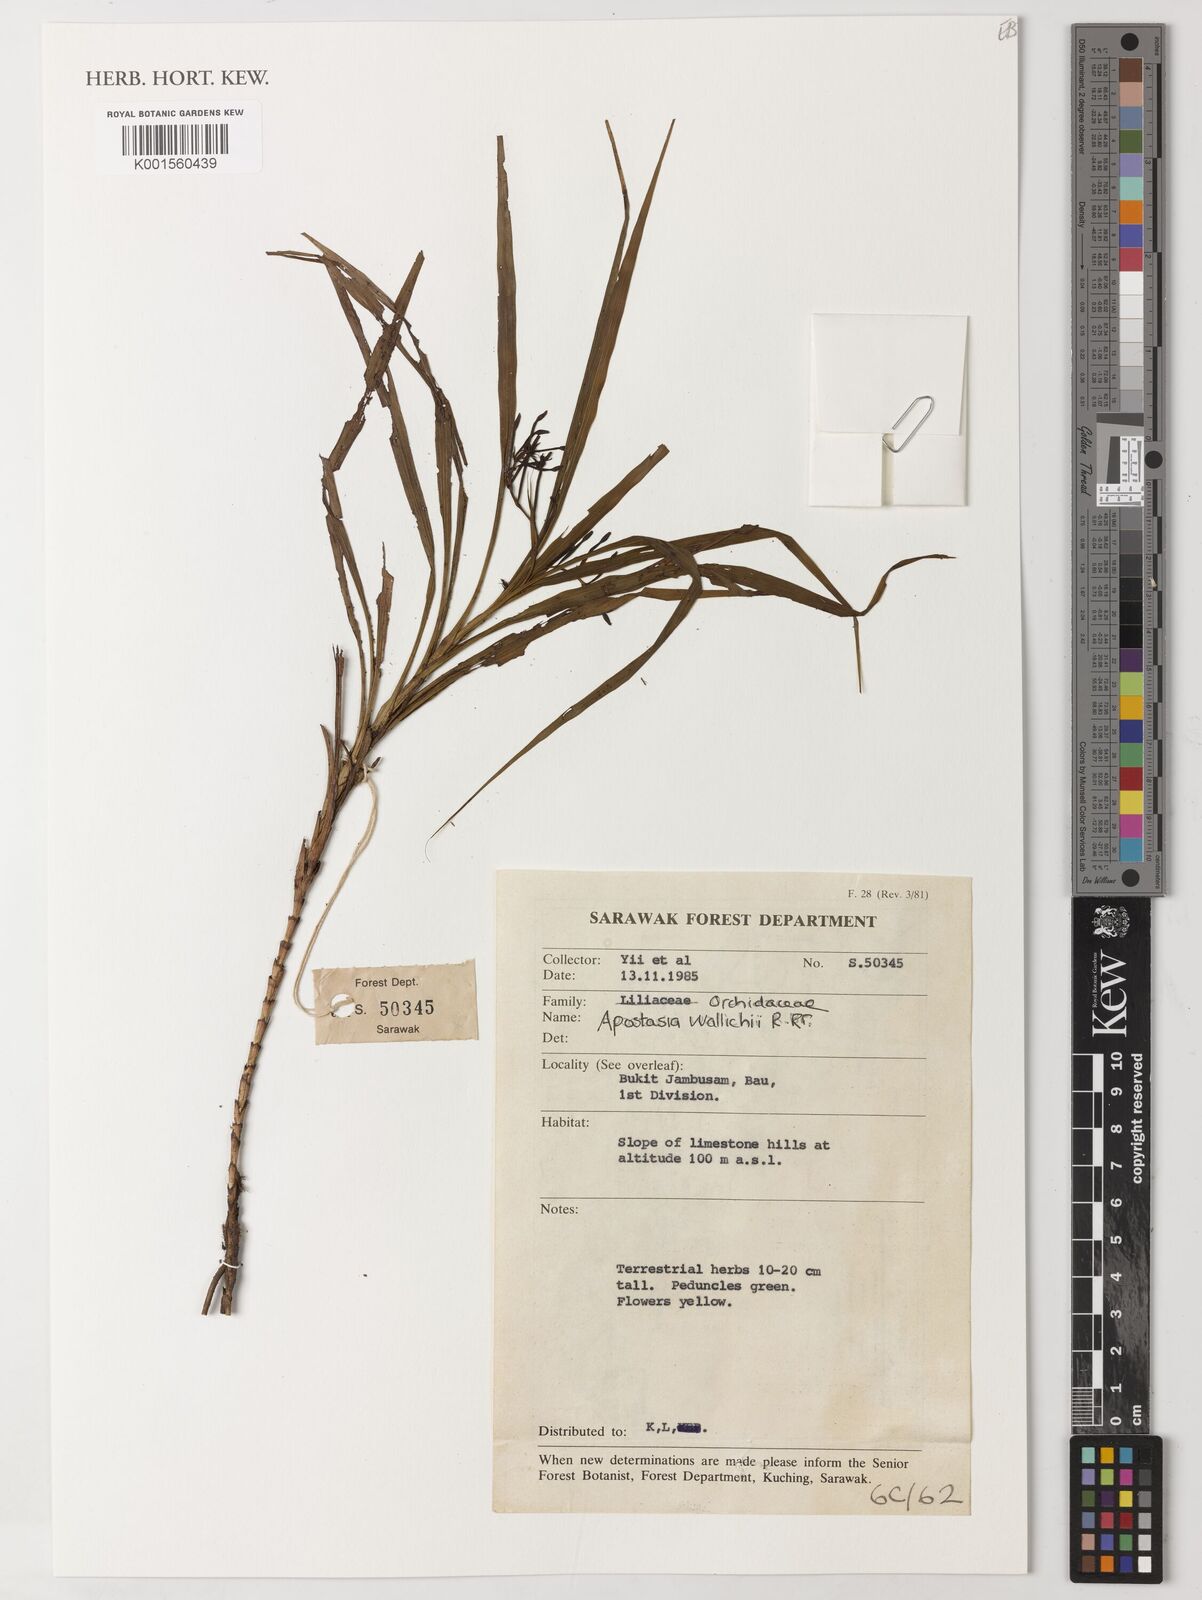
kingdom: Plantae
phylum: Tracheophyta
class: Liliopsida
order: Asparagales
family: Orchidaceae
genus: Apostasia
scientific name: Apostasia wallichii
